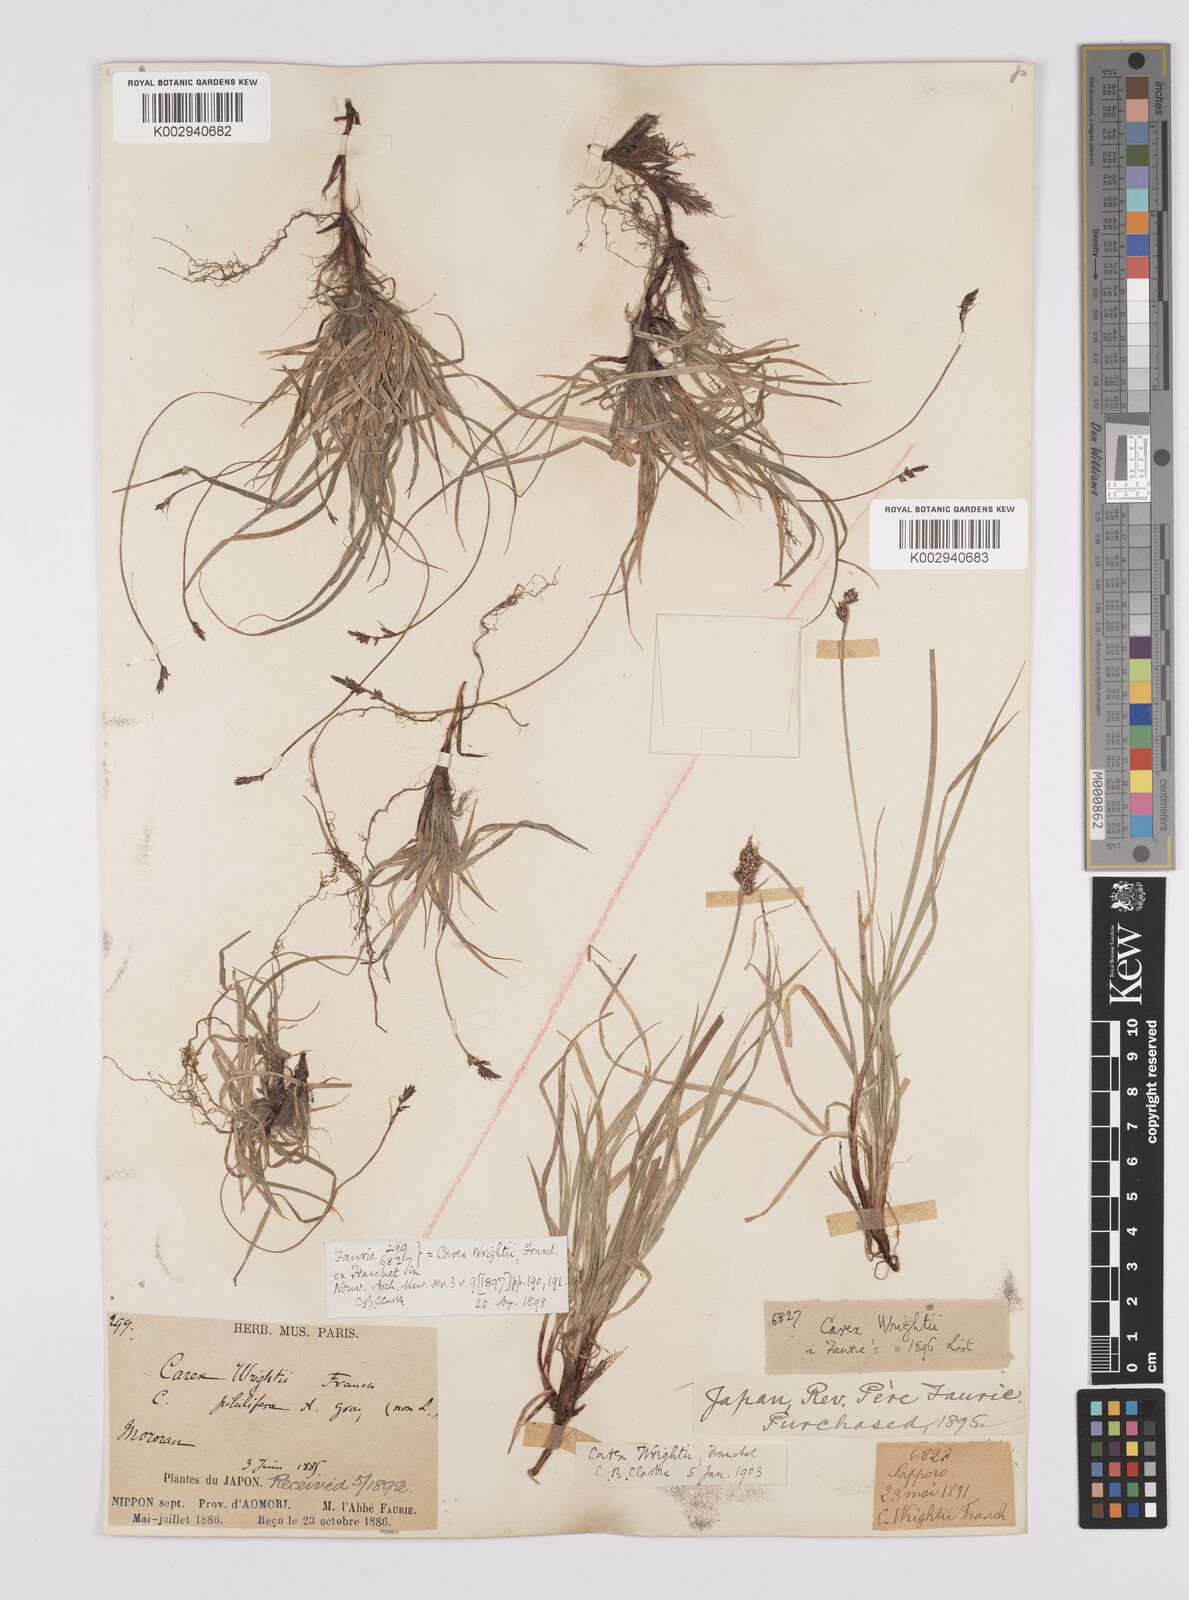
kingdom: Plantae
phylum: Tracheophyta
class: Liliopsida
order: Poales
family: Cyperaceae
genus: Carex
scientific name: Carex oxyandra
